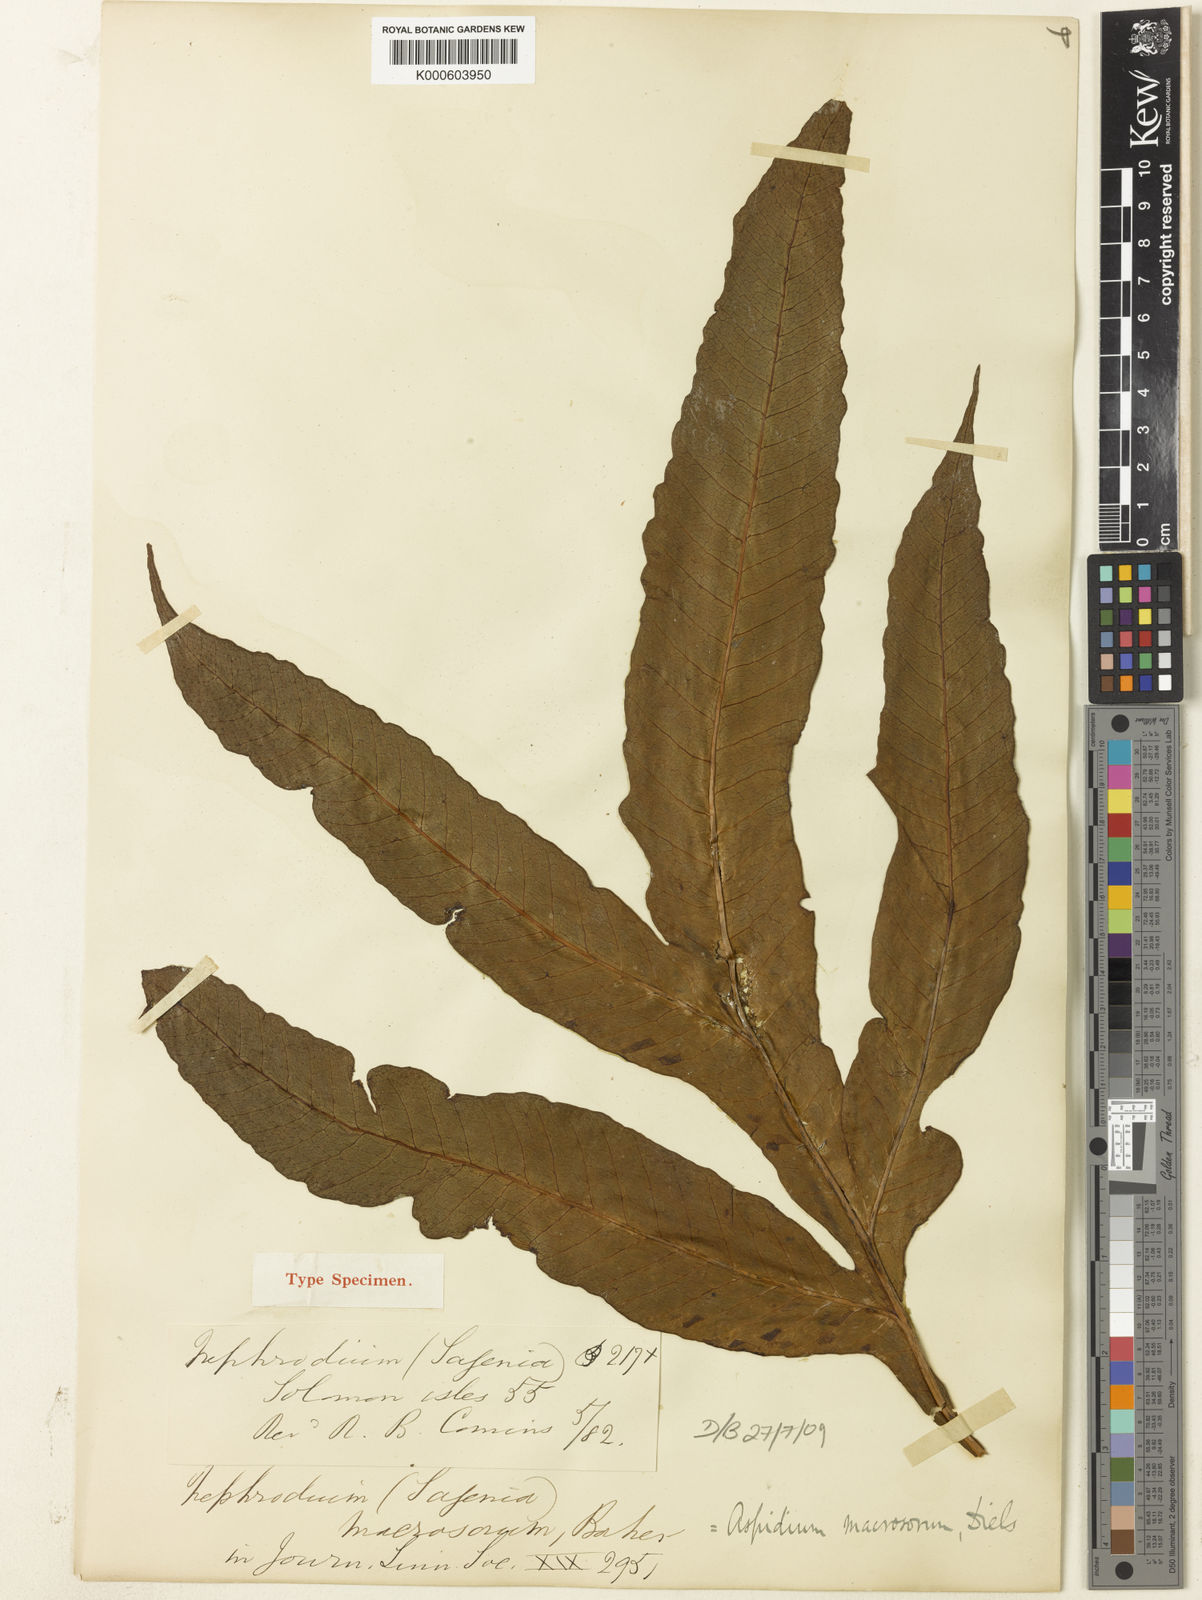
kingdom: Plantae
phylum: Tracheophyta
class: Polypodiopsida
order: Polypodiales
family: Tectariaceae
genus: Tectaria
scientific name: Tectaria repanda
